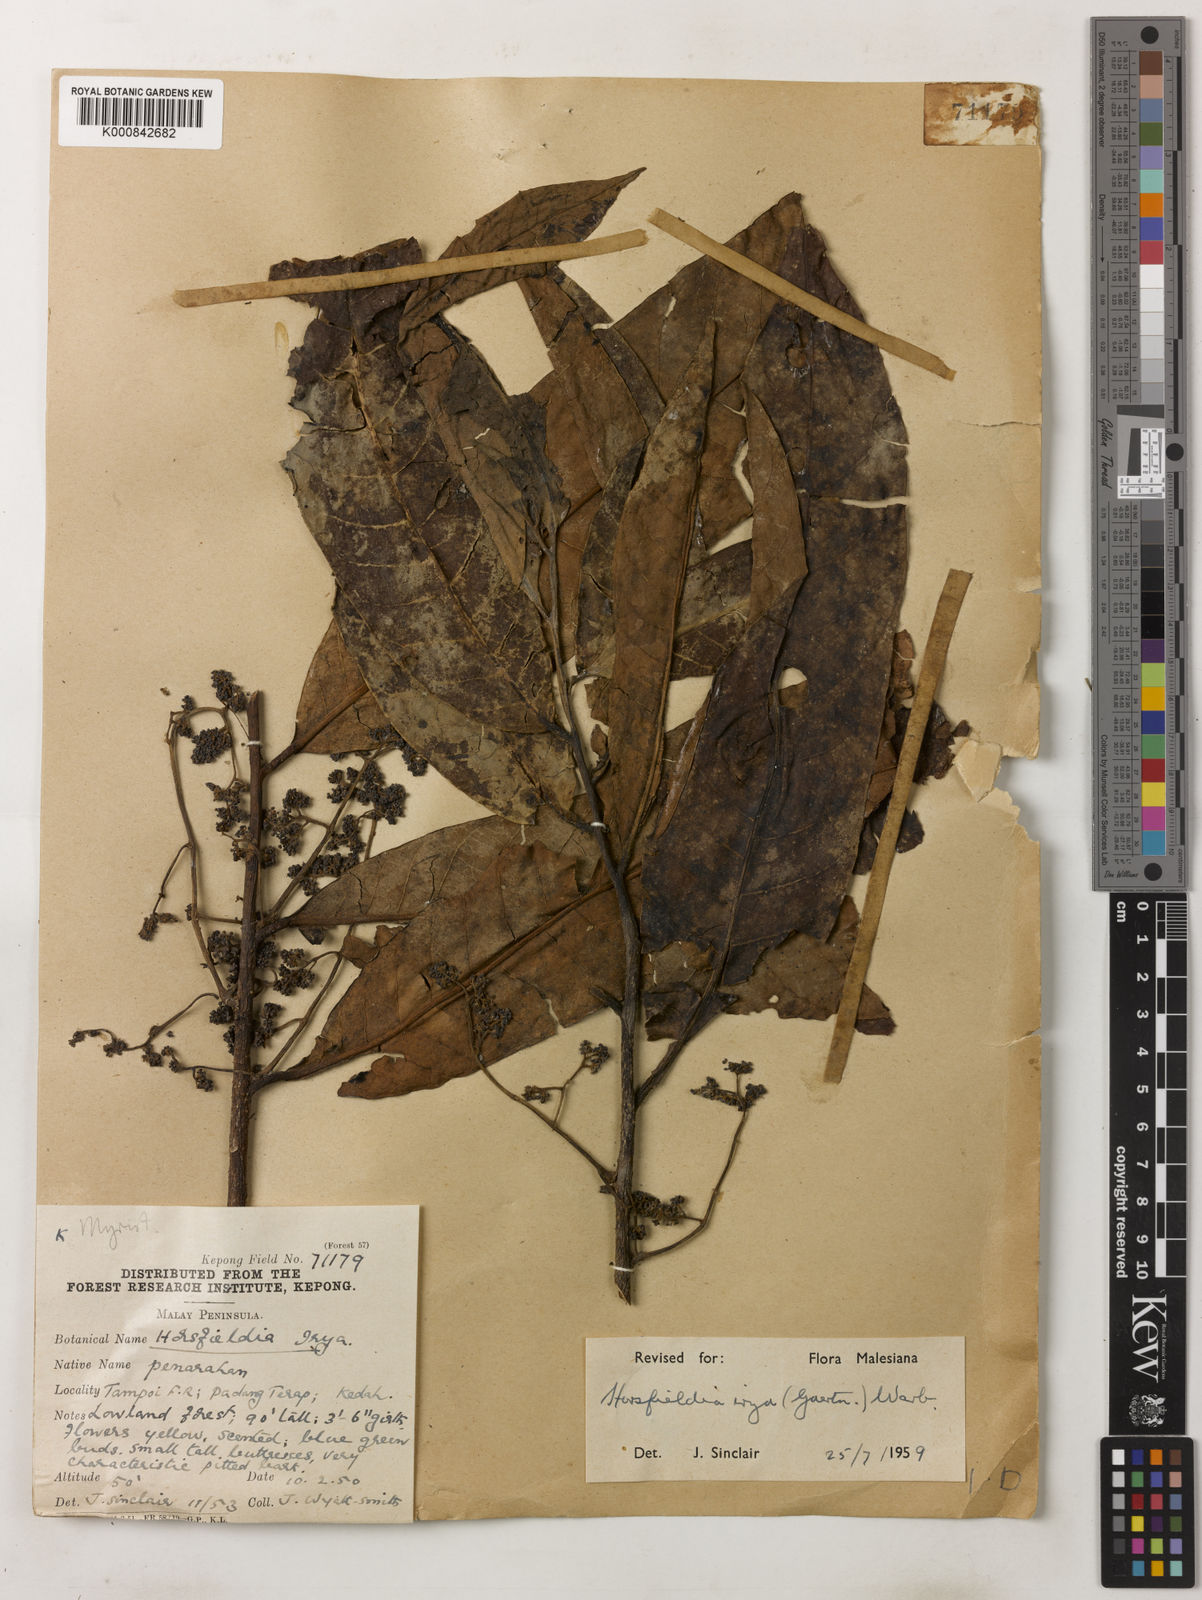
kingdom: Plantae
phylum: Tracheophyta
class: Magnoliopsida
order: Magnoliales
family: Myristicaceae
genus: Horsfieldia
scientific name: Horsfieldia irya
